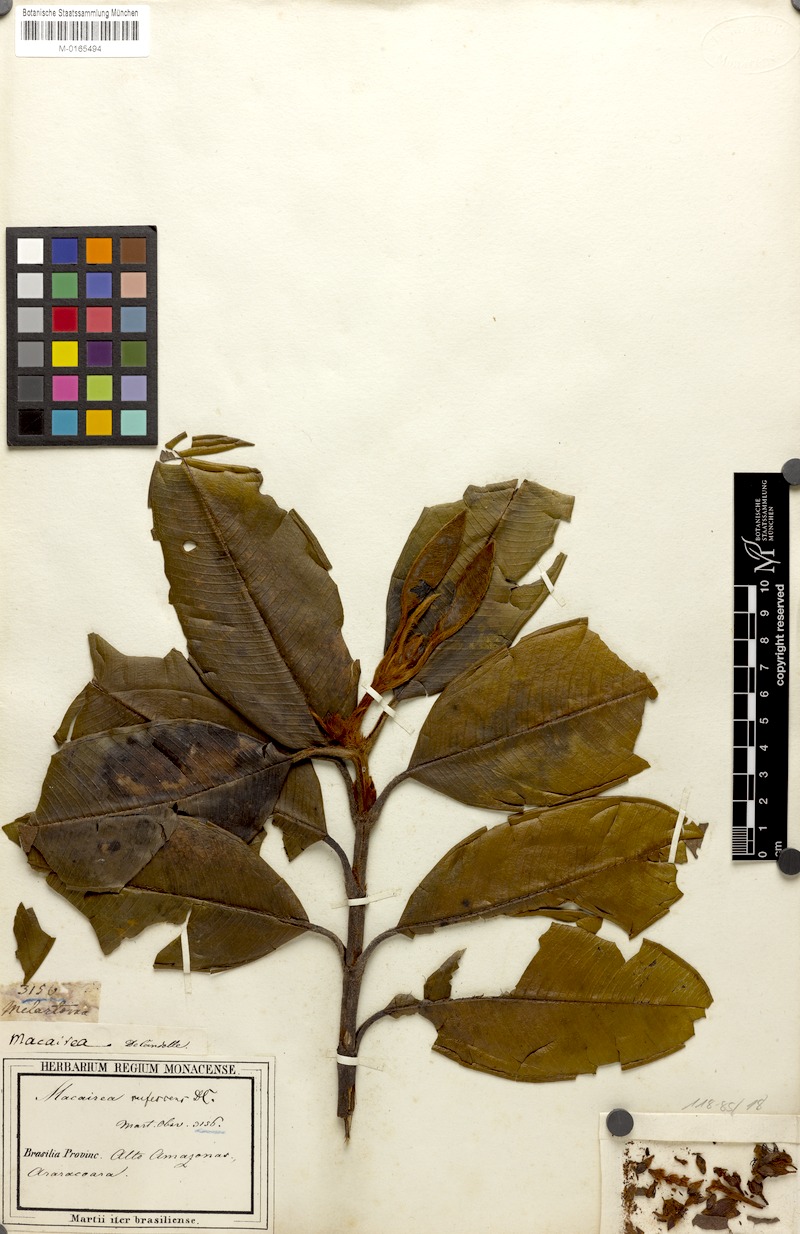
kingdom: Plantae
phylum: Tracheophyta
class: Magnoliopsida
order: Myrtales
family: Melastomataceae
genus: Macairea
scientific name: Macairea rufescens
